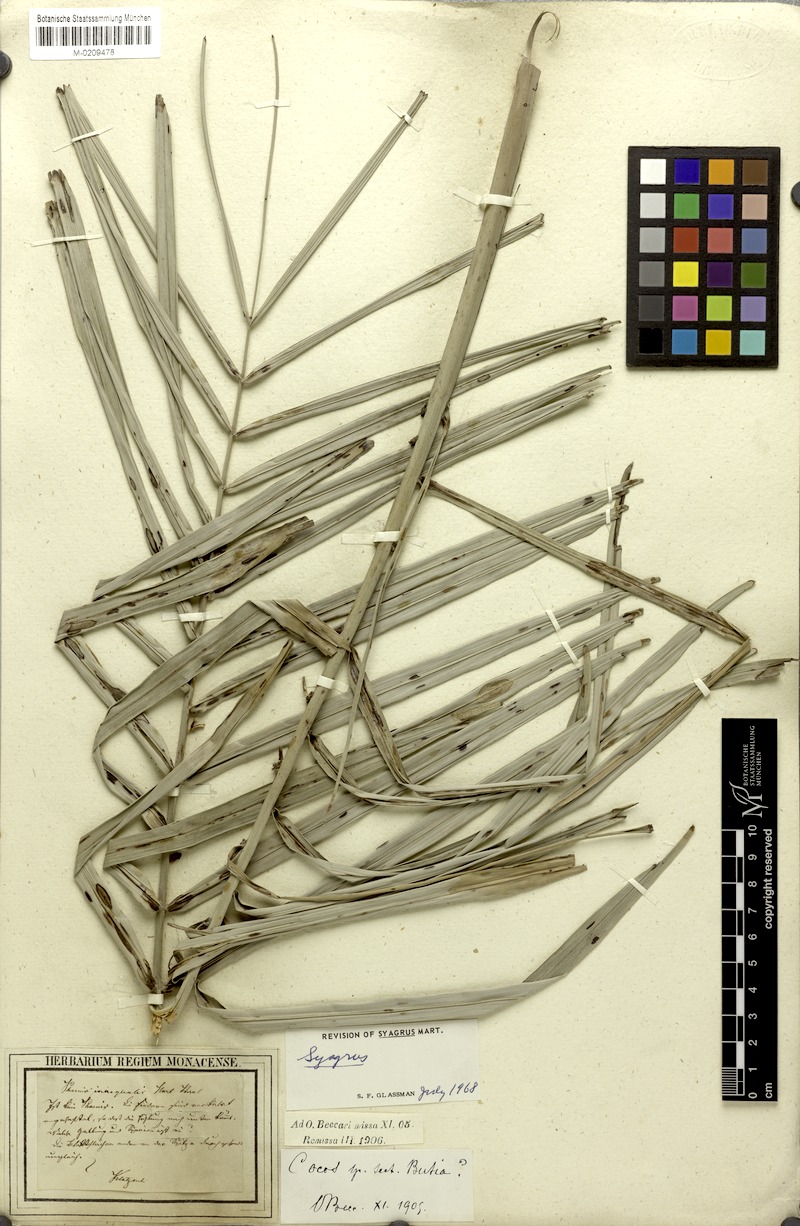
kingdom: Plantae
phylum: Tracheophyta
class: Liliopsida
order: Arecales
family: Arecaceae
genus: Syagrus
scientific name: Syagrus
